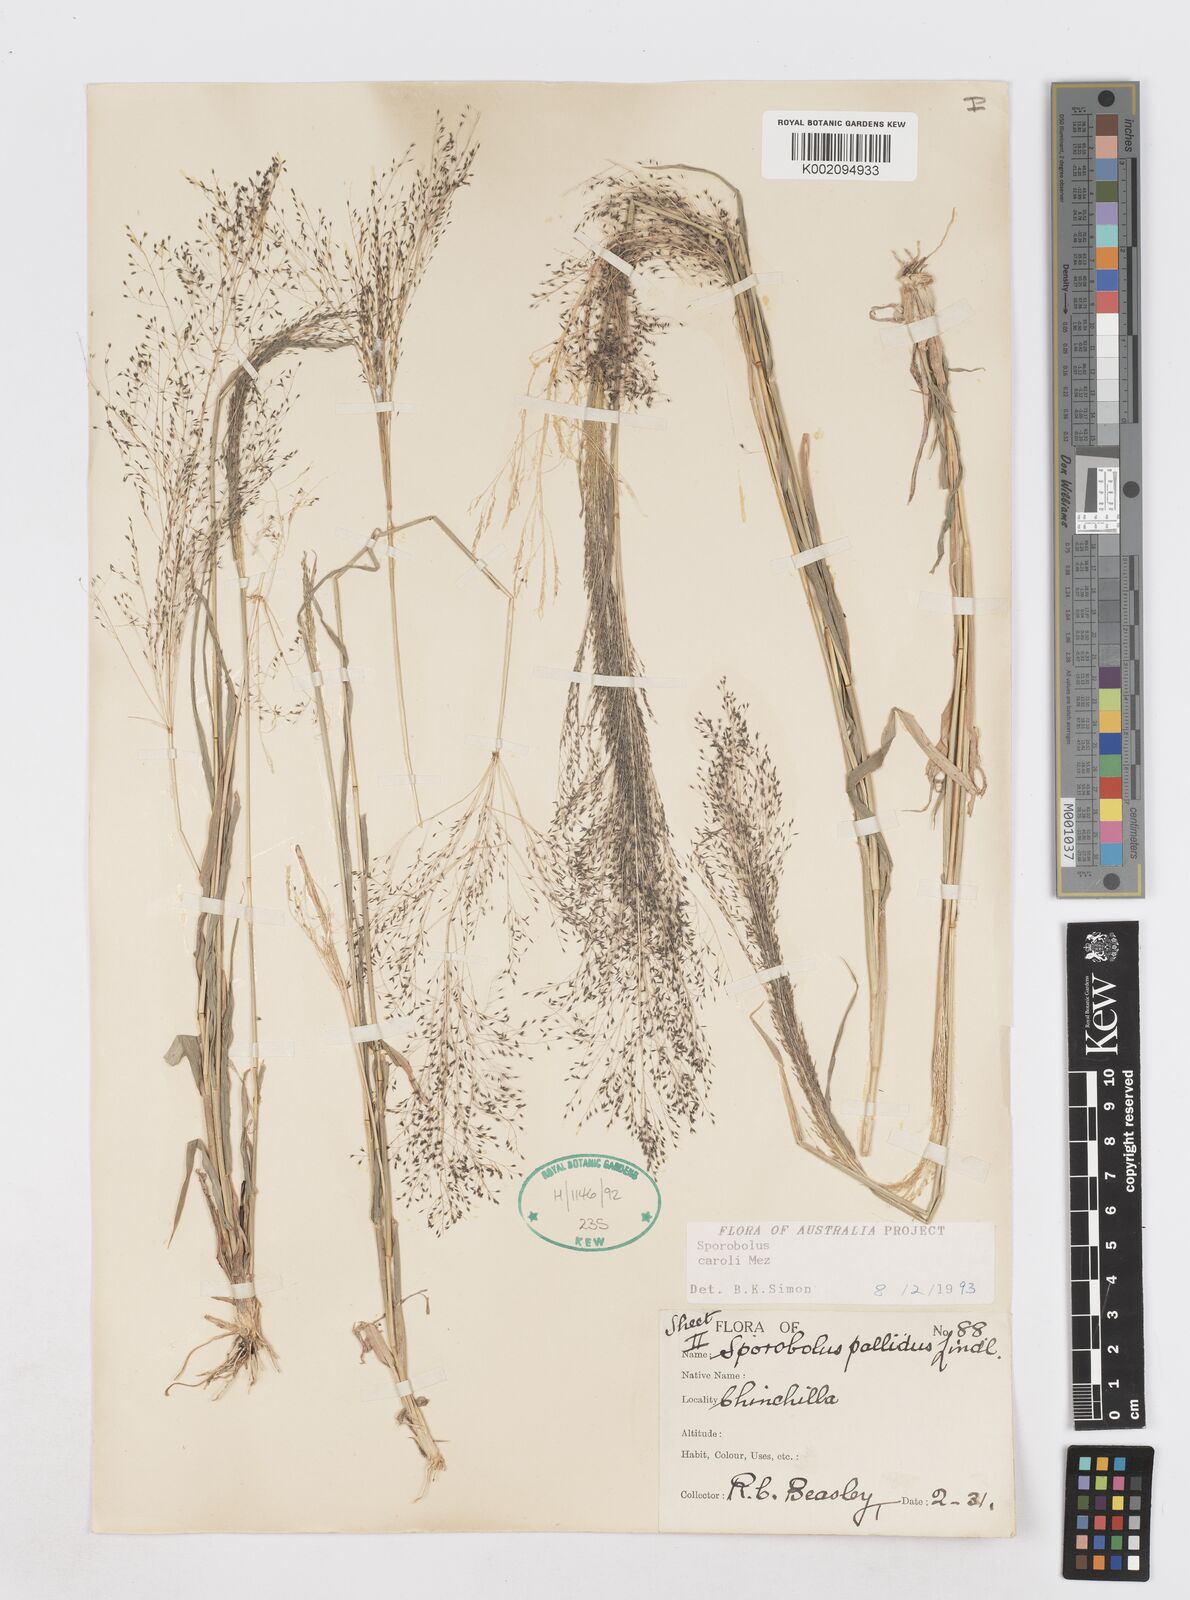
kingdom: Plantae
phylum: Tracheophyta
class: Liliopsida
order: Poales
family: Poaceae
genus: Sporobolus
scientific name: Sporobolus caroli
